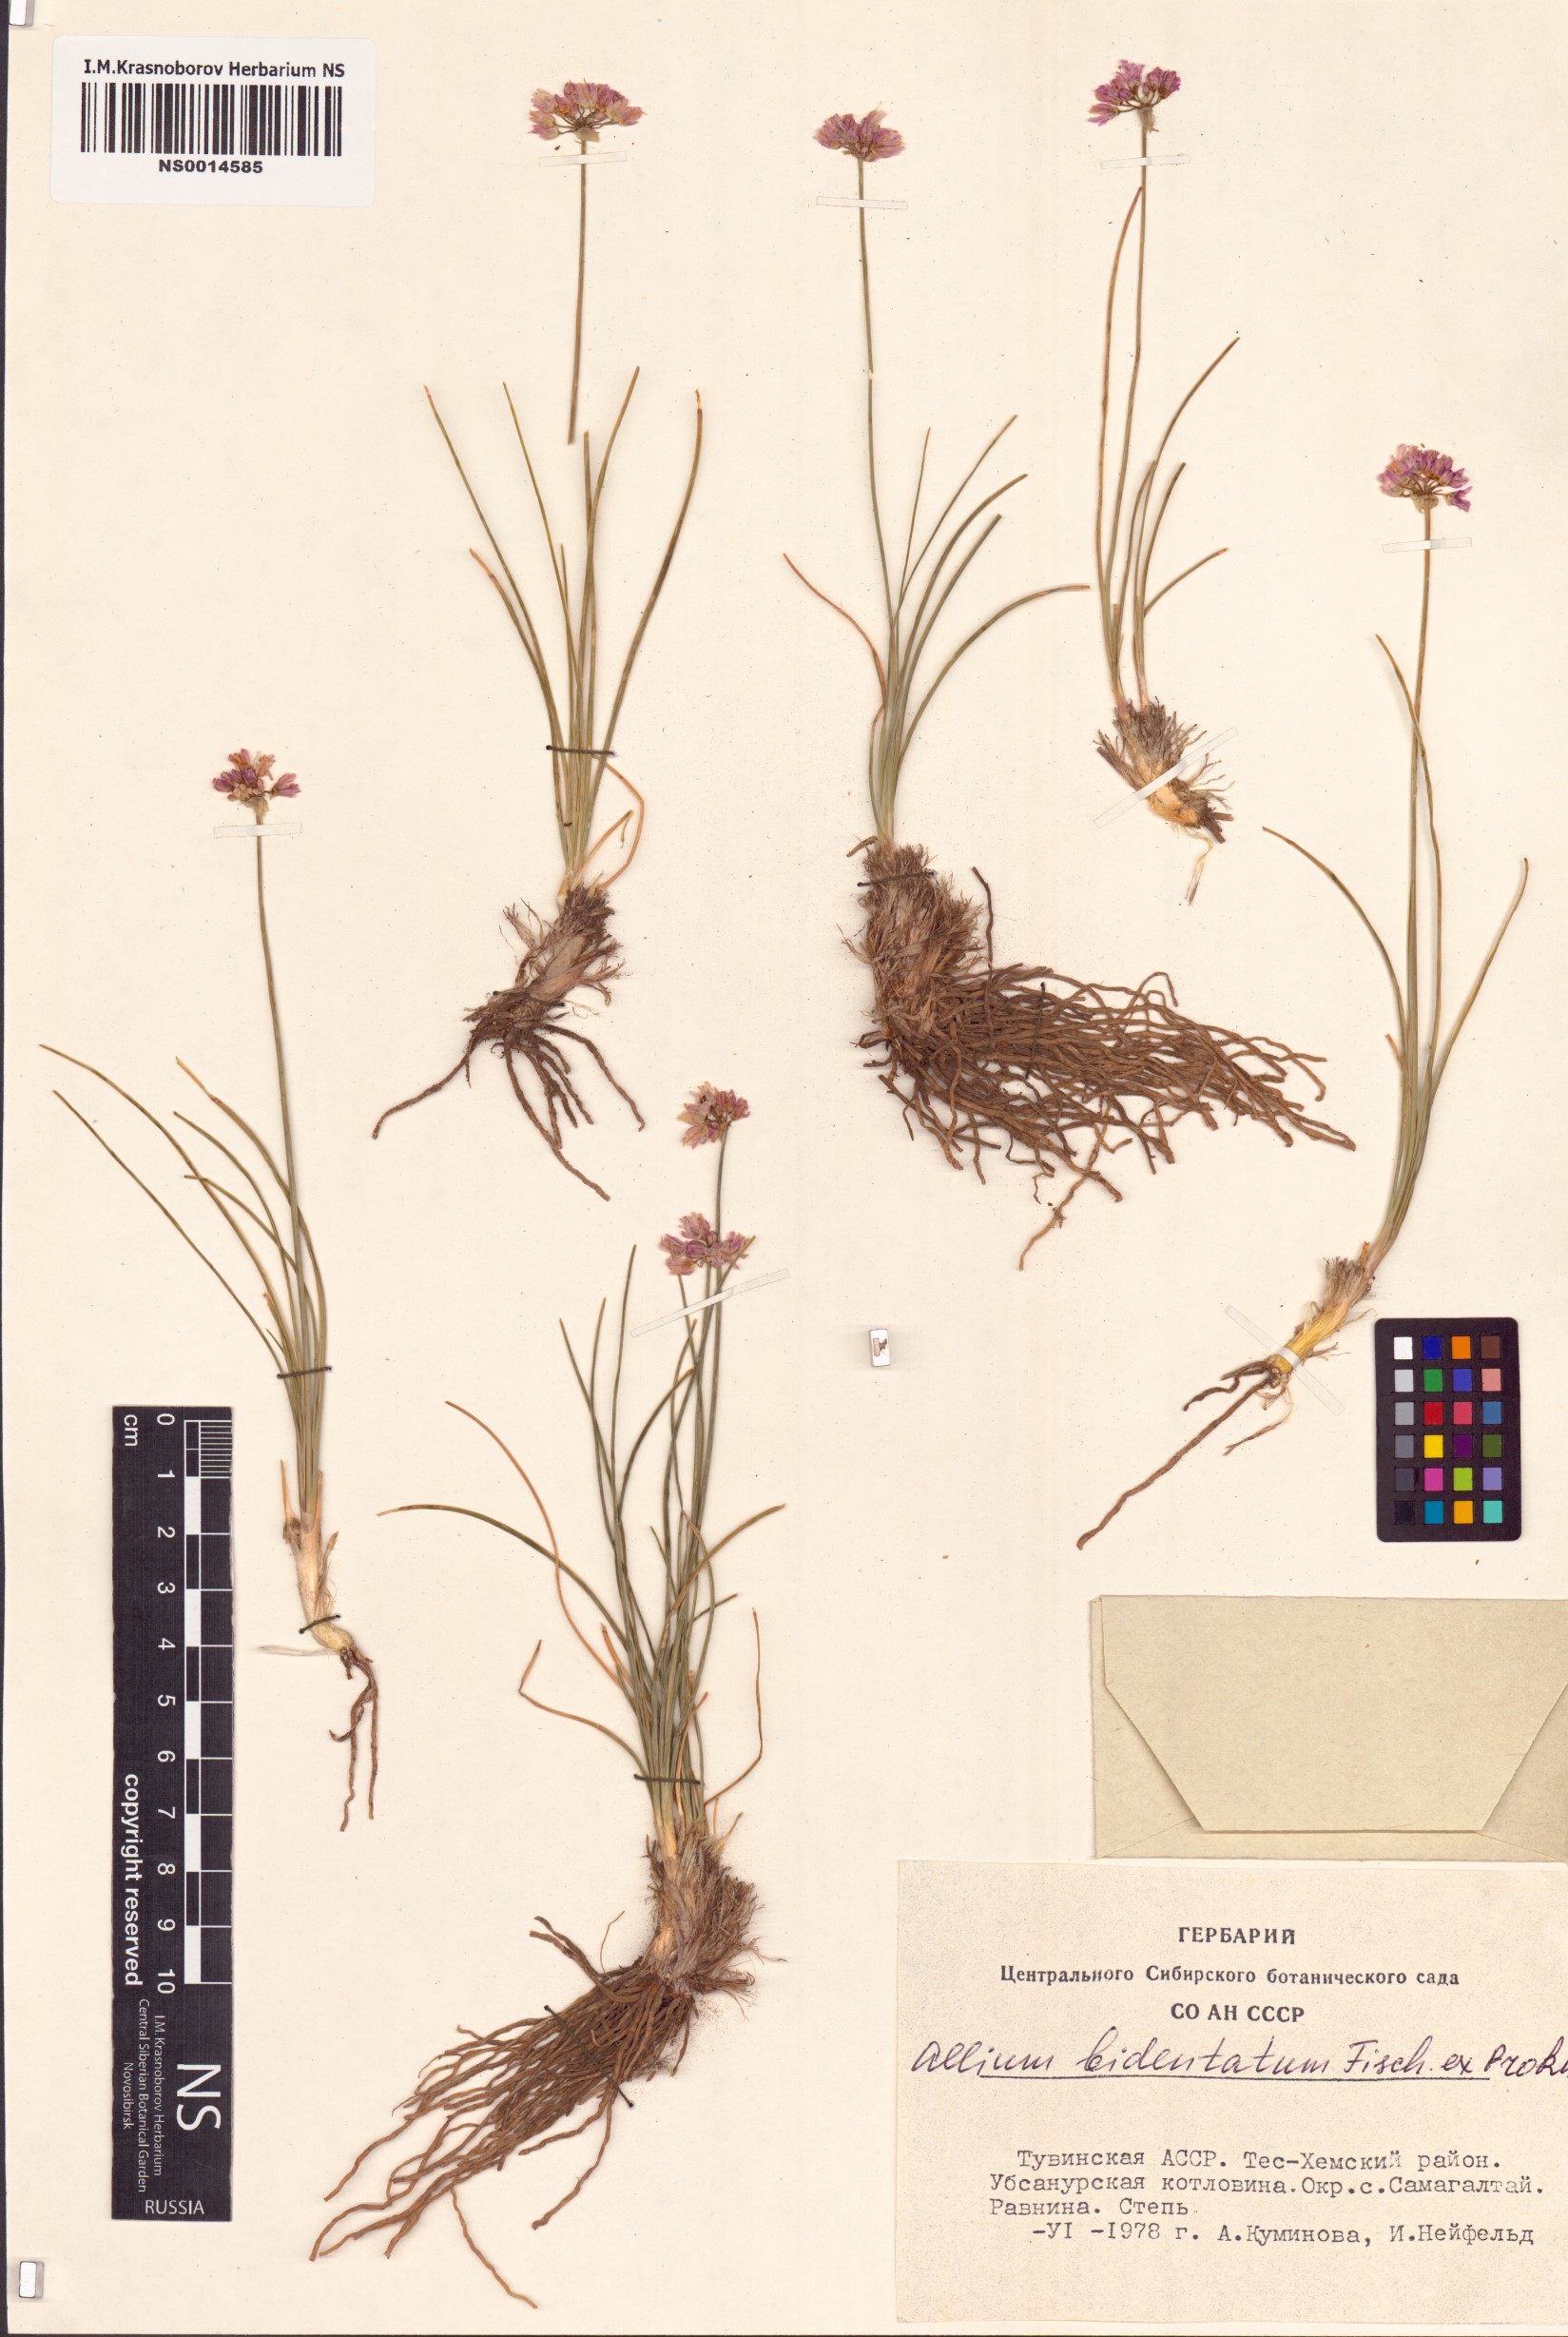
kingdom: Plantae
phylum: Tracheophyta
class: Liliopsida
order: Asparagales
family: Amaryllidaceae
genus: Allium
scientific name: Allium bidentatum
